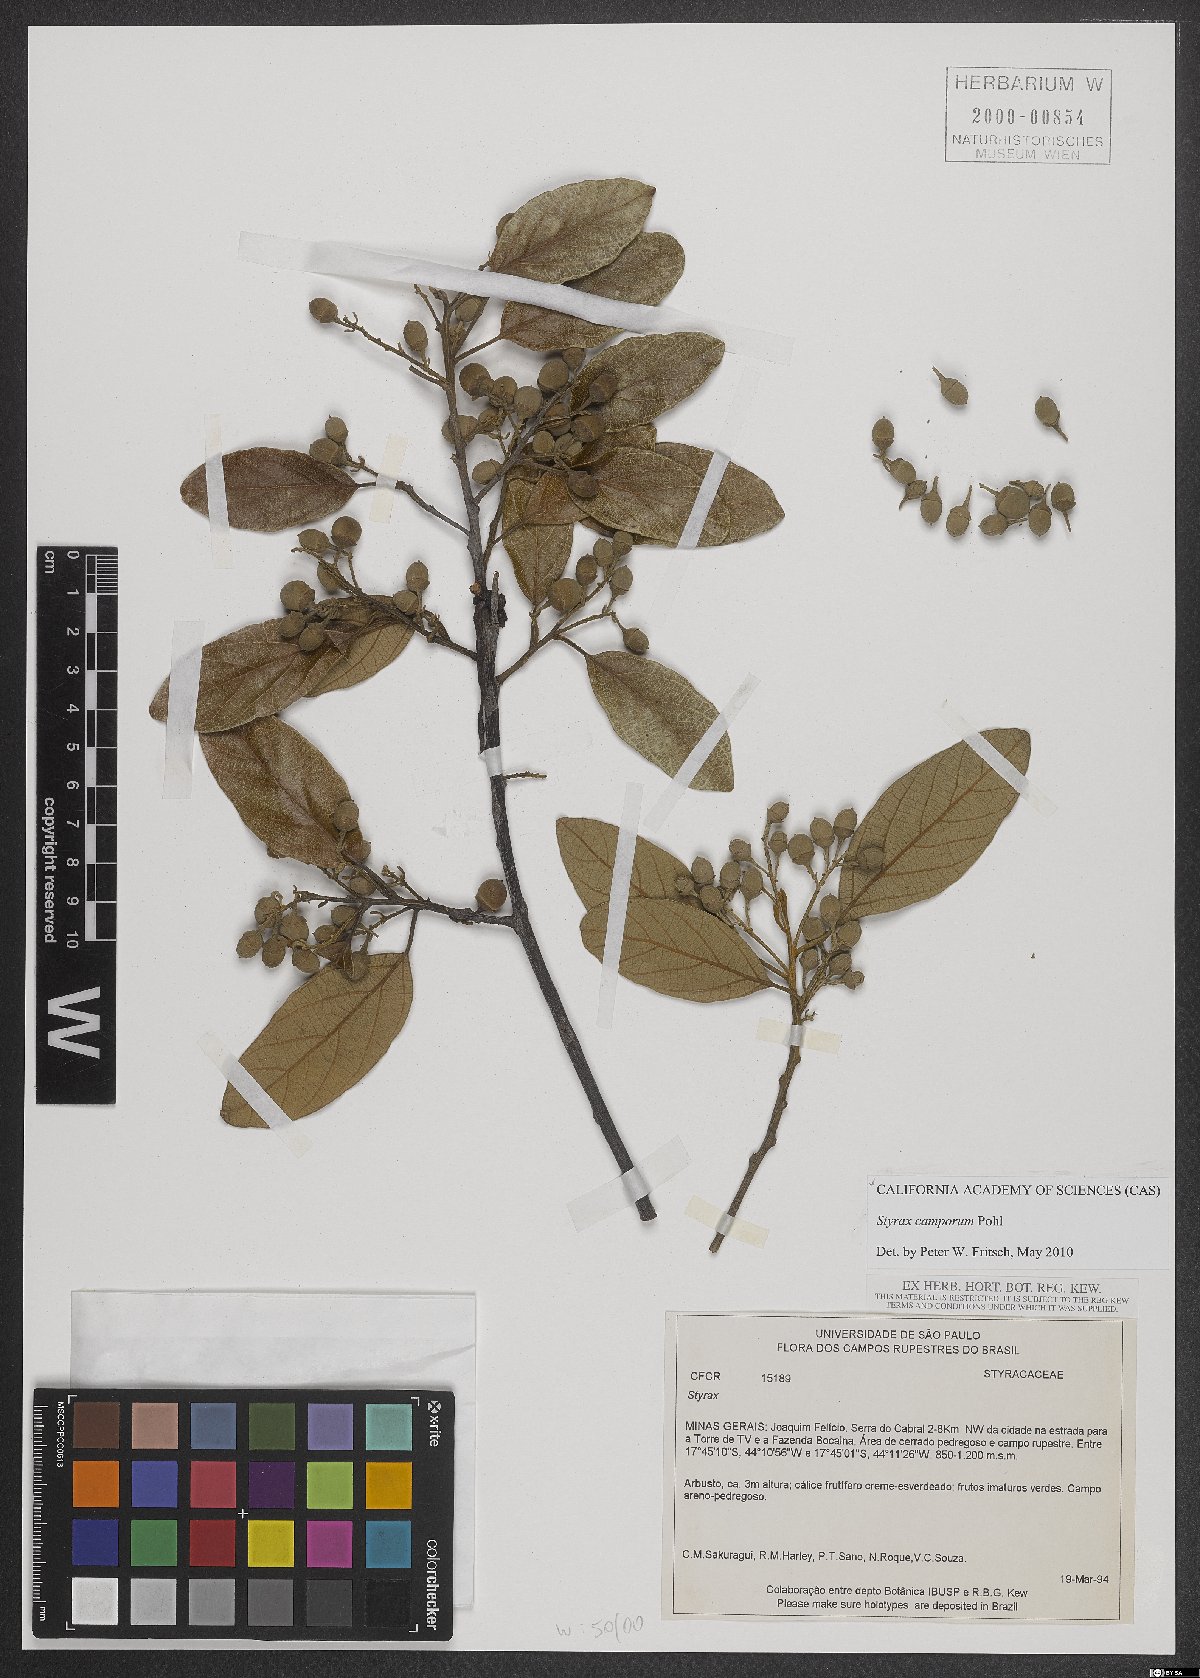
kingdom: Plantae
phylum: Tracheophyta
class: Magnoliopsida
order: Ericales
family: Styracaceae
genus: Styrax
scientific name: Styrax camporum
